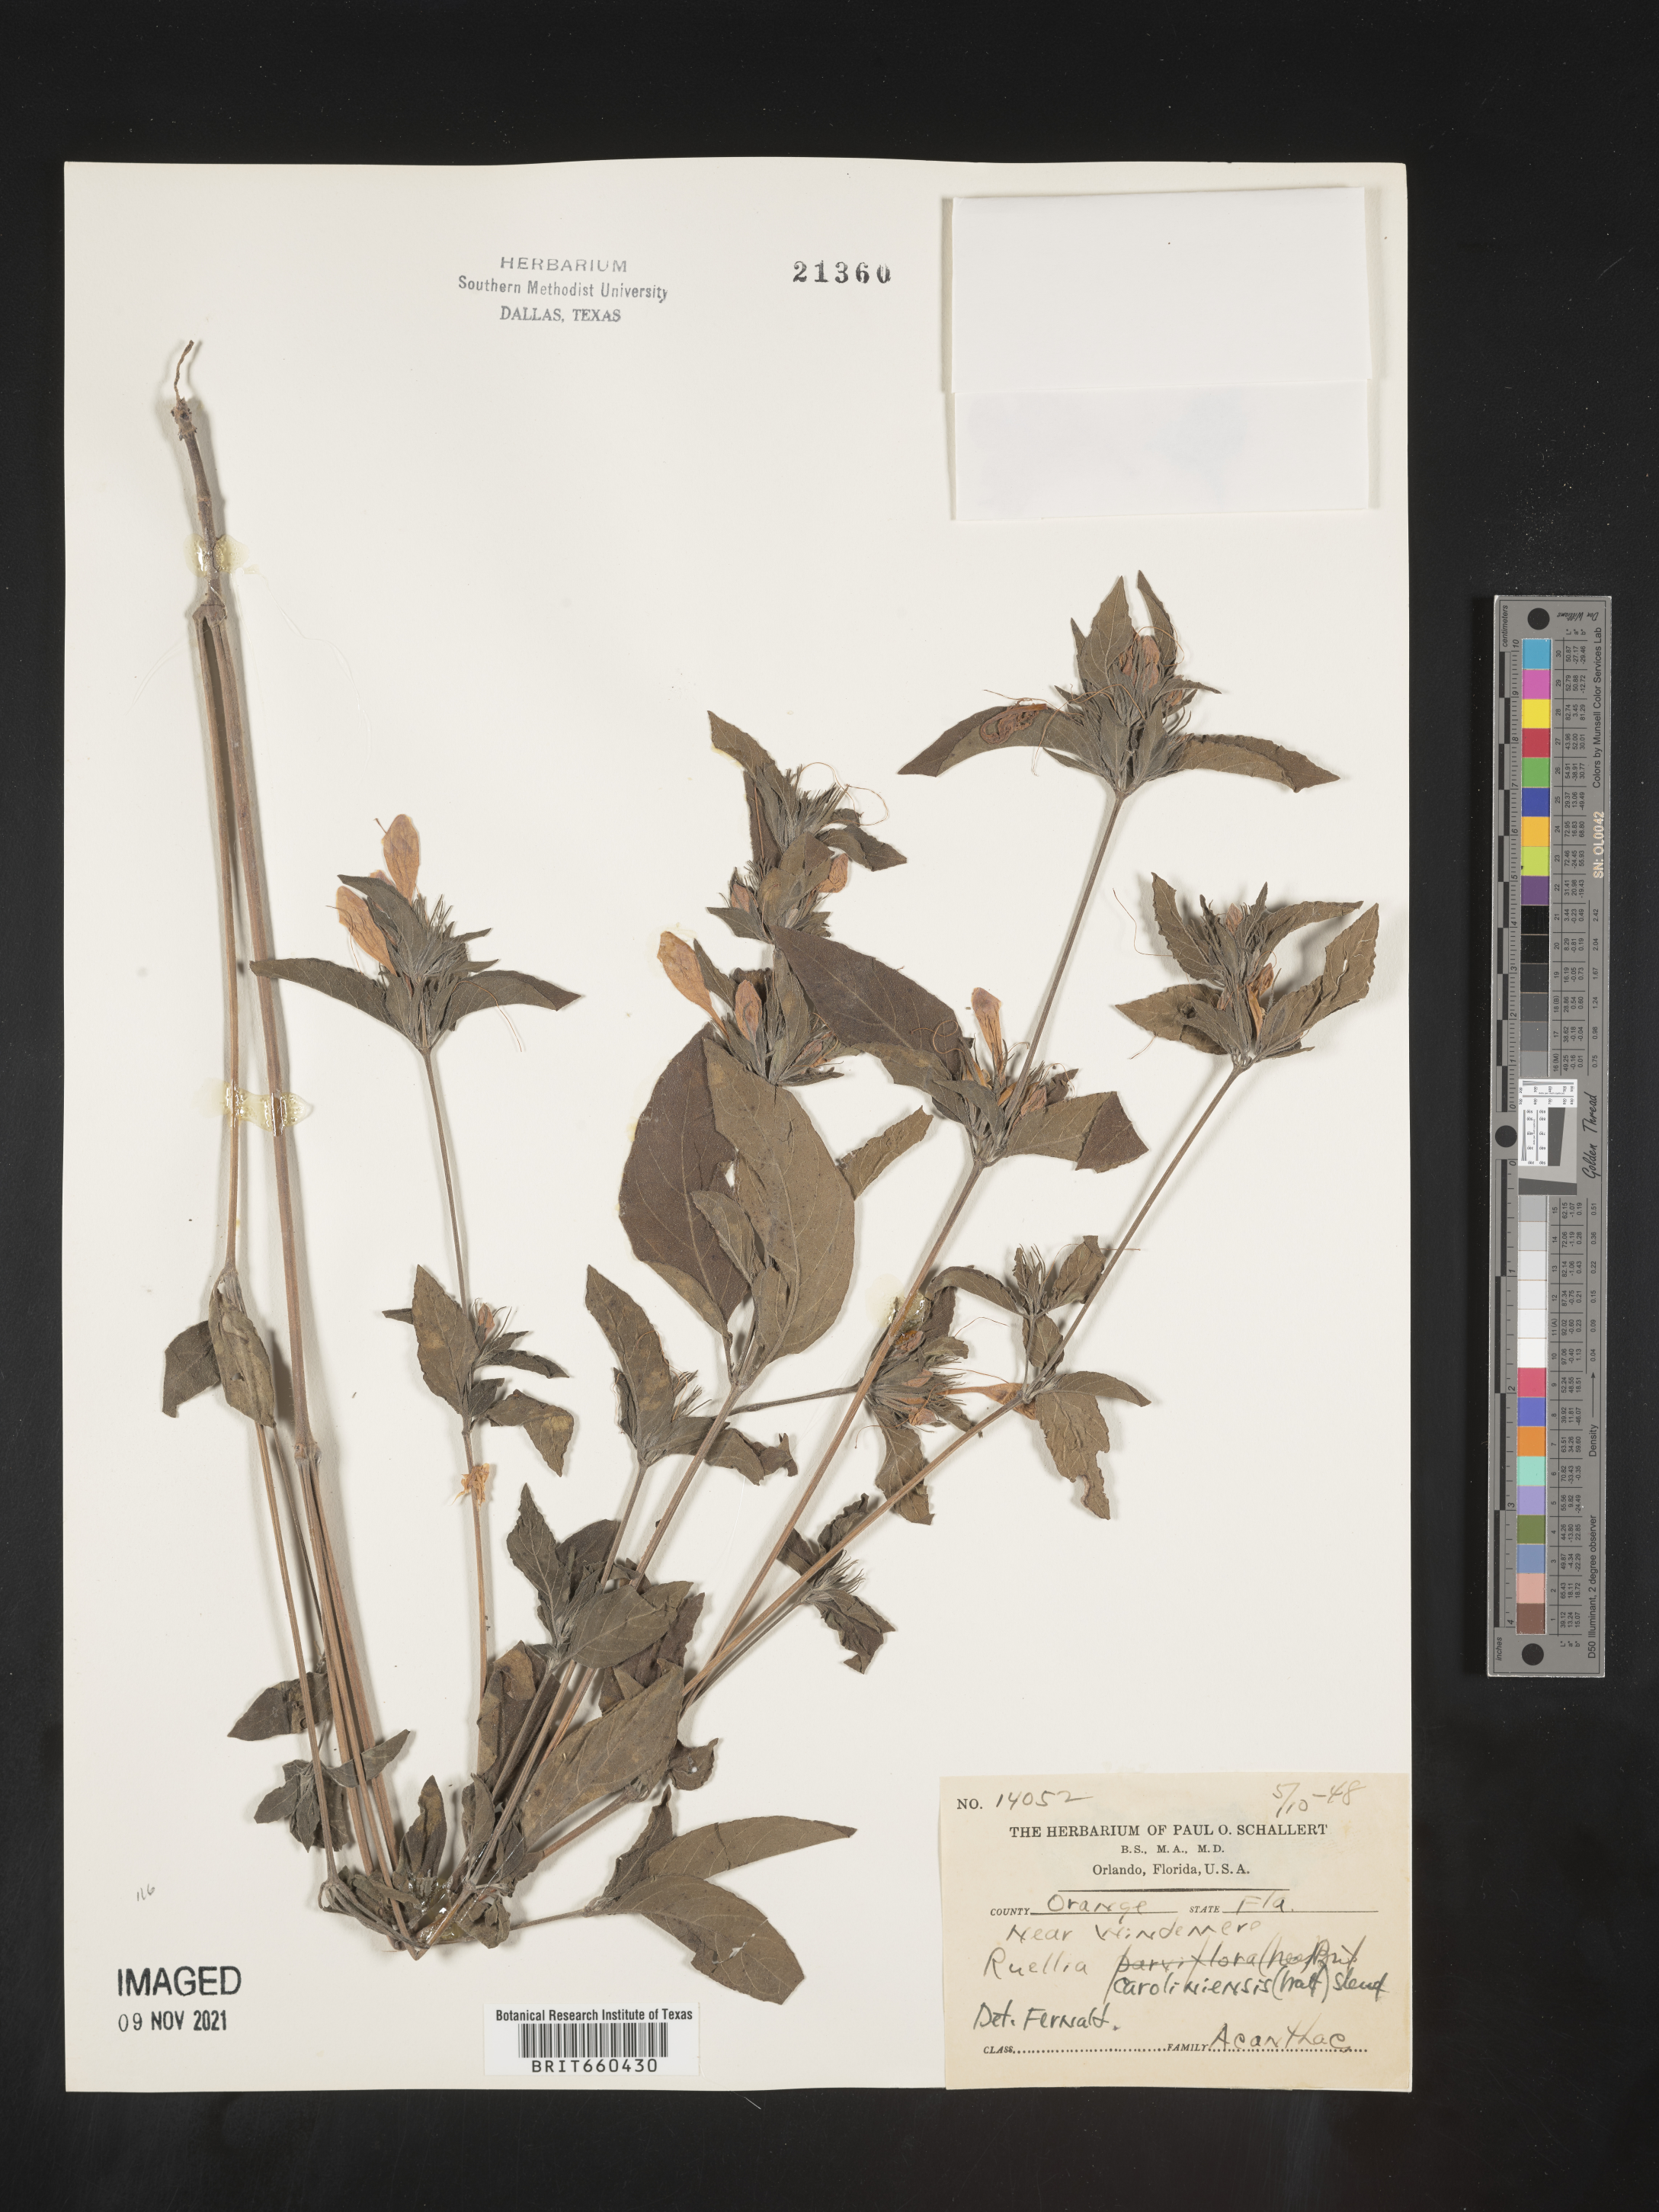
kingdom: Plantae
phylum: Tracheophyta
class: Magnoliopsida
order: Lamiales
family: Acanthaceae
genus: Ruellia
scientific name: Ruellia caroliniensis
